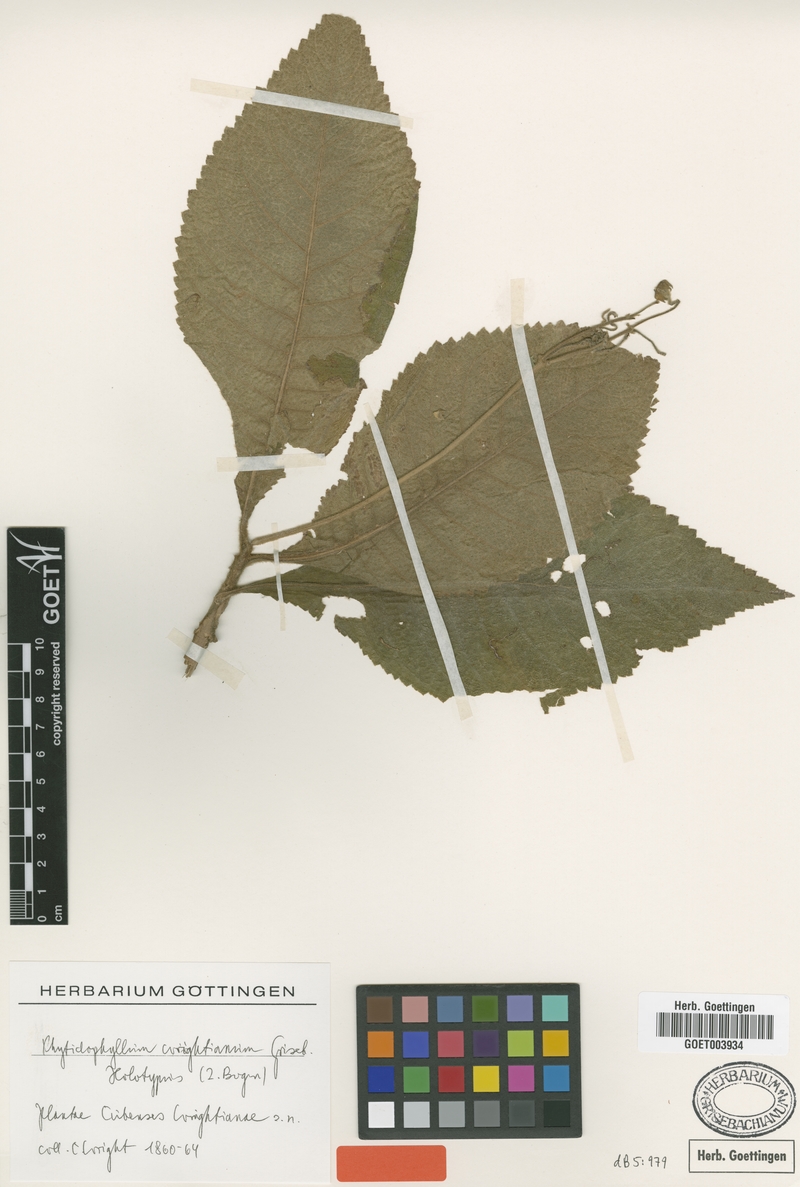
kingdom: Plantae
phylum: Tracheophyta
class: Magnoliopsida
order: Lamiales
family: Gesneriaceae
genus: Rhytidophyllum
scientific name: Rhytidophyllum wrightianum
